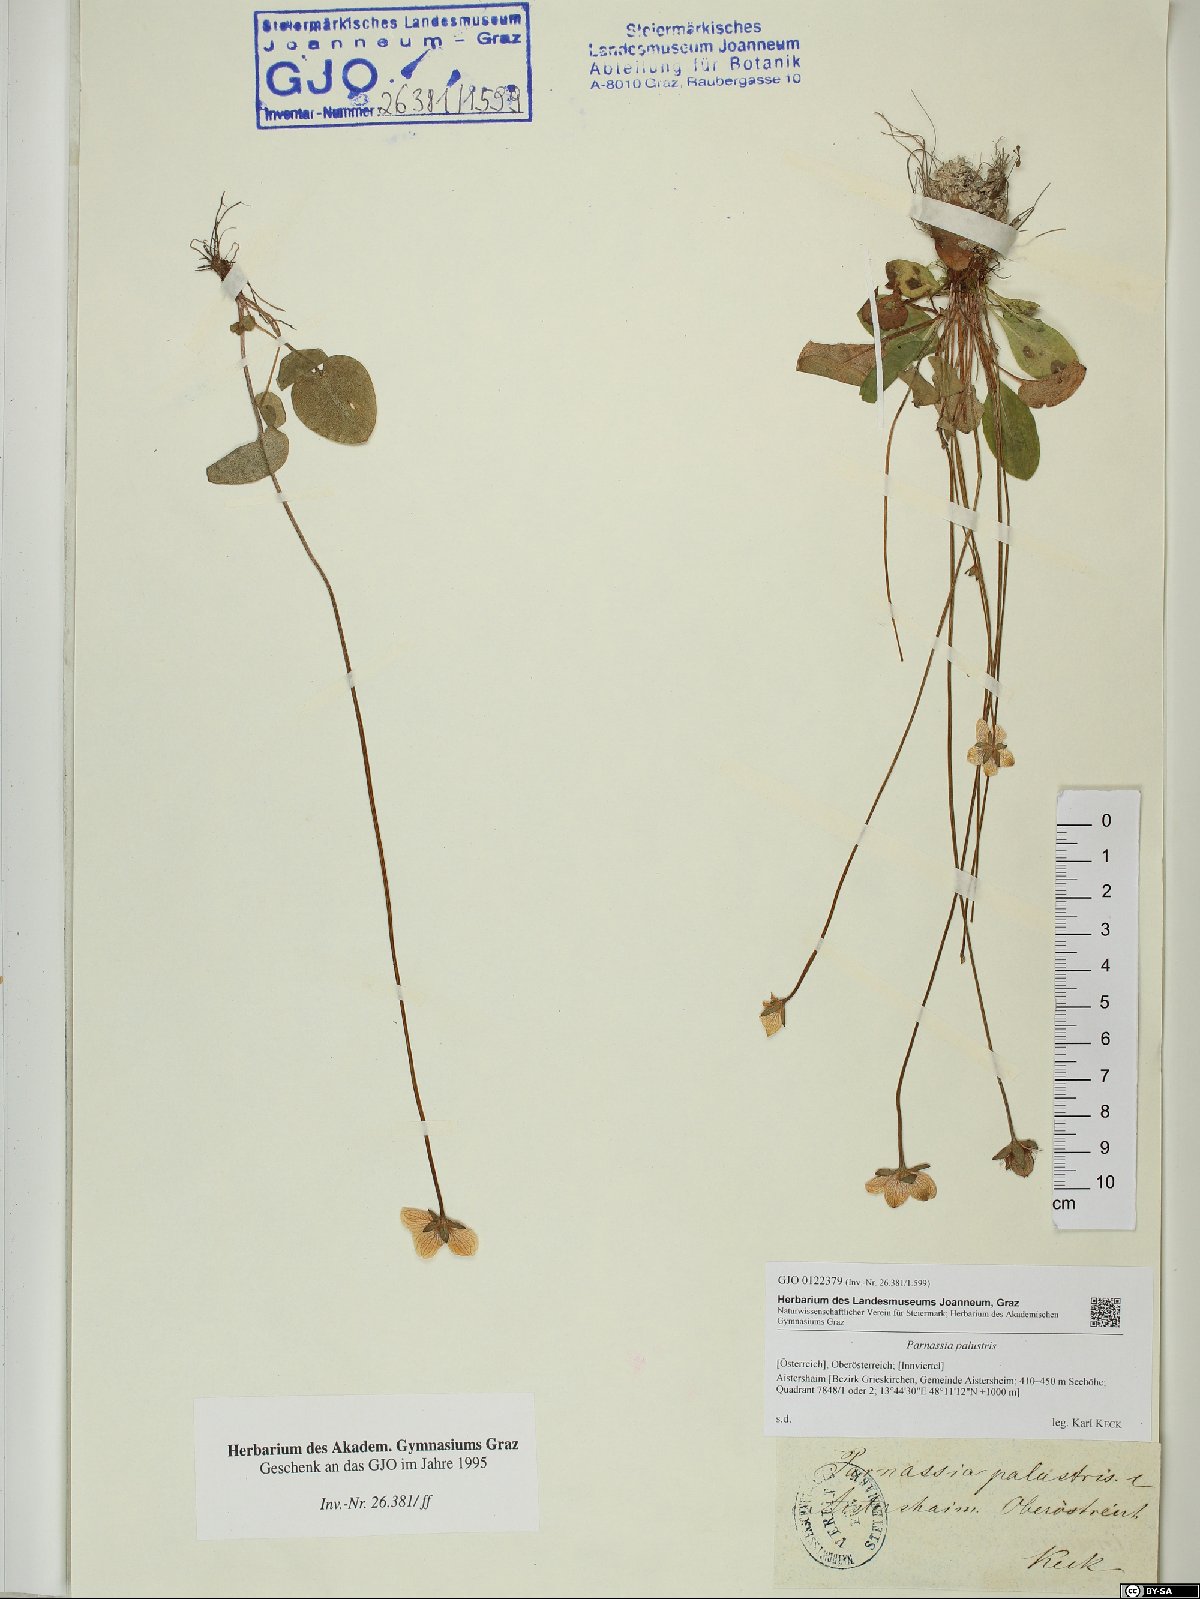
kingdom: Plantae
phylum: Tracheophyta
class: Magnoliopsida
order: Celastrales
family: Parnassiaceae
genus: Parnassia
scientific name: Parnassia palustris
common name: Grass-of-parnassus
